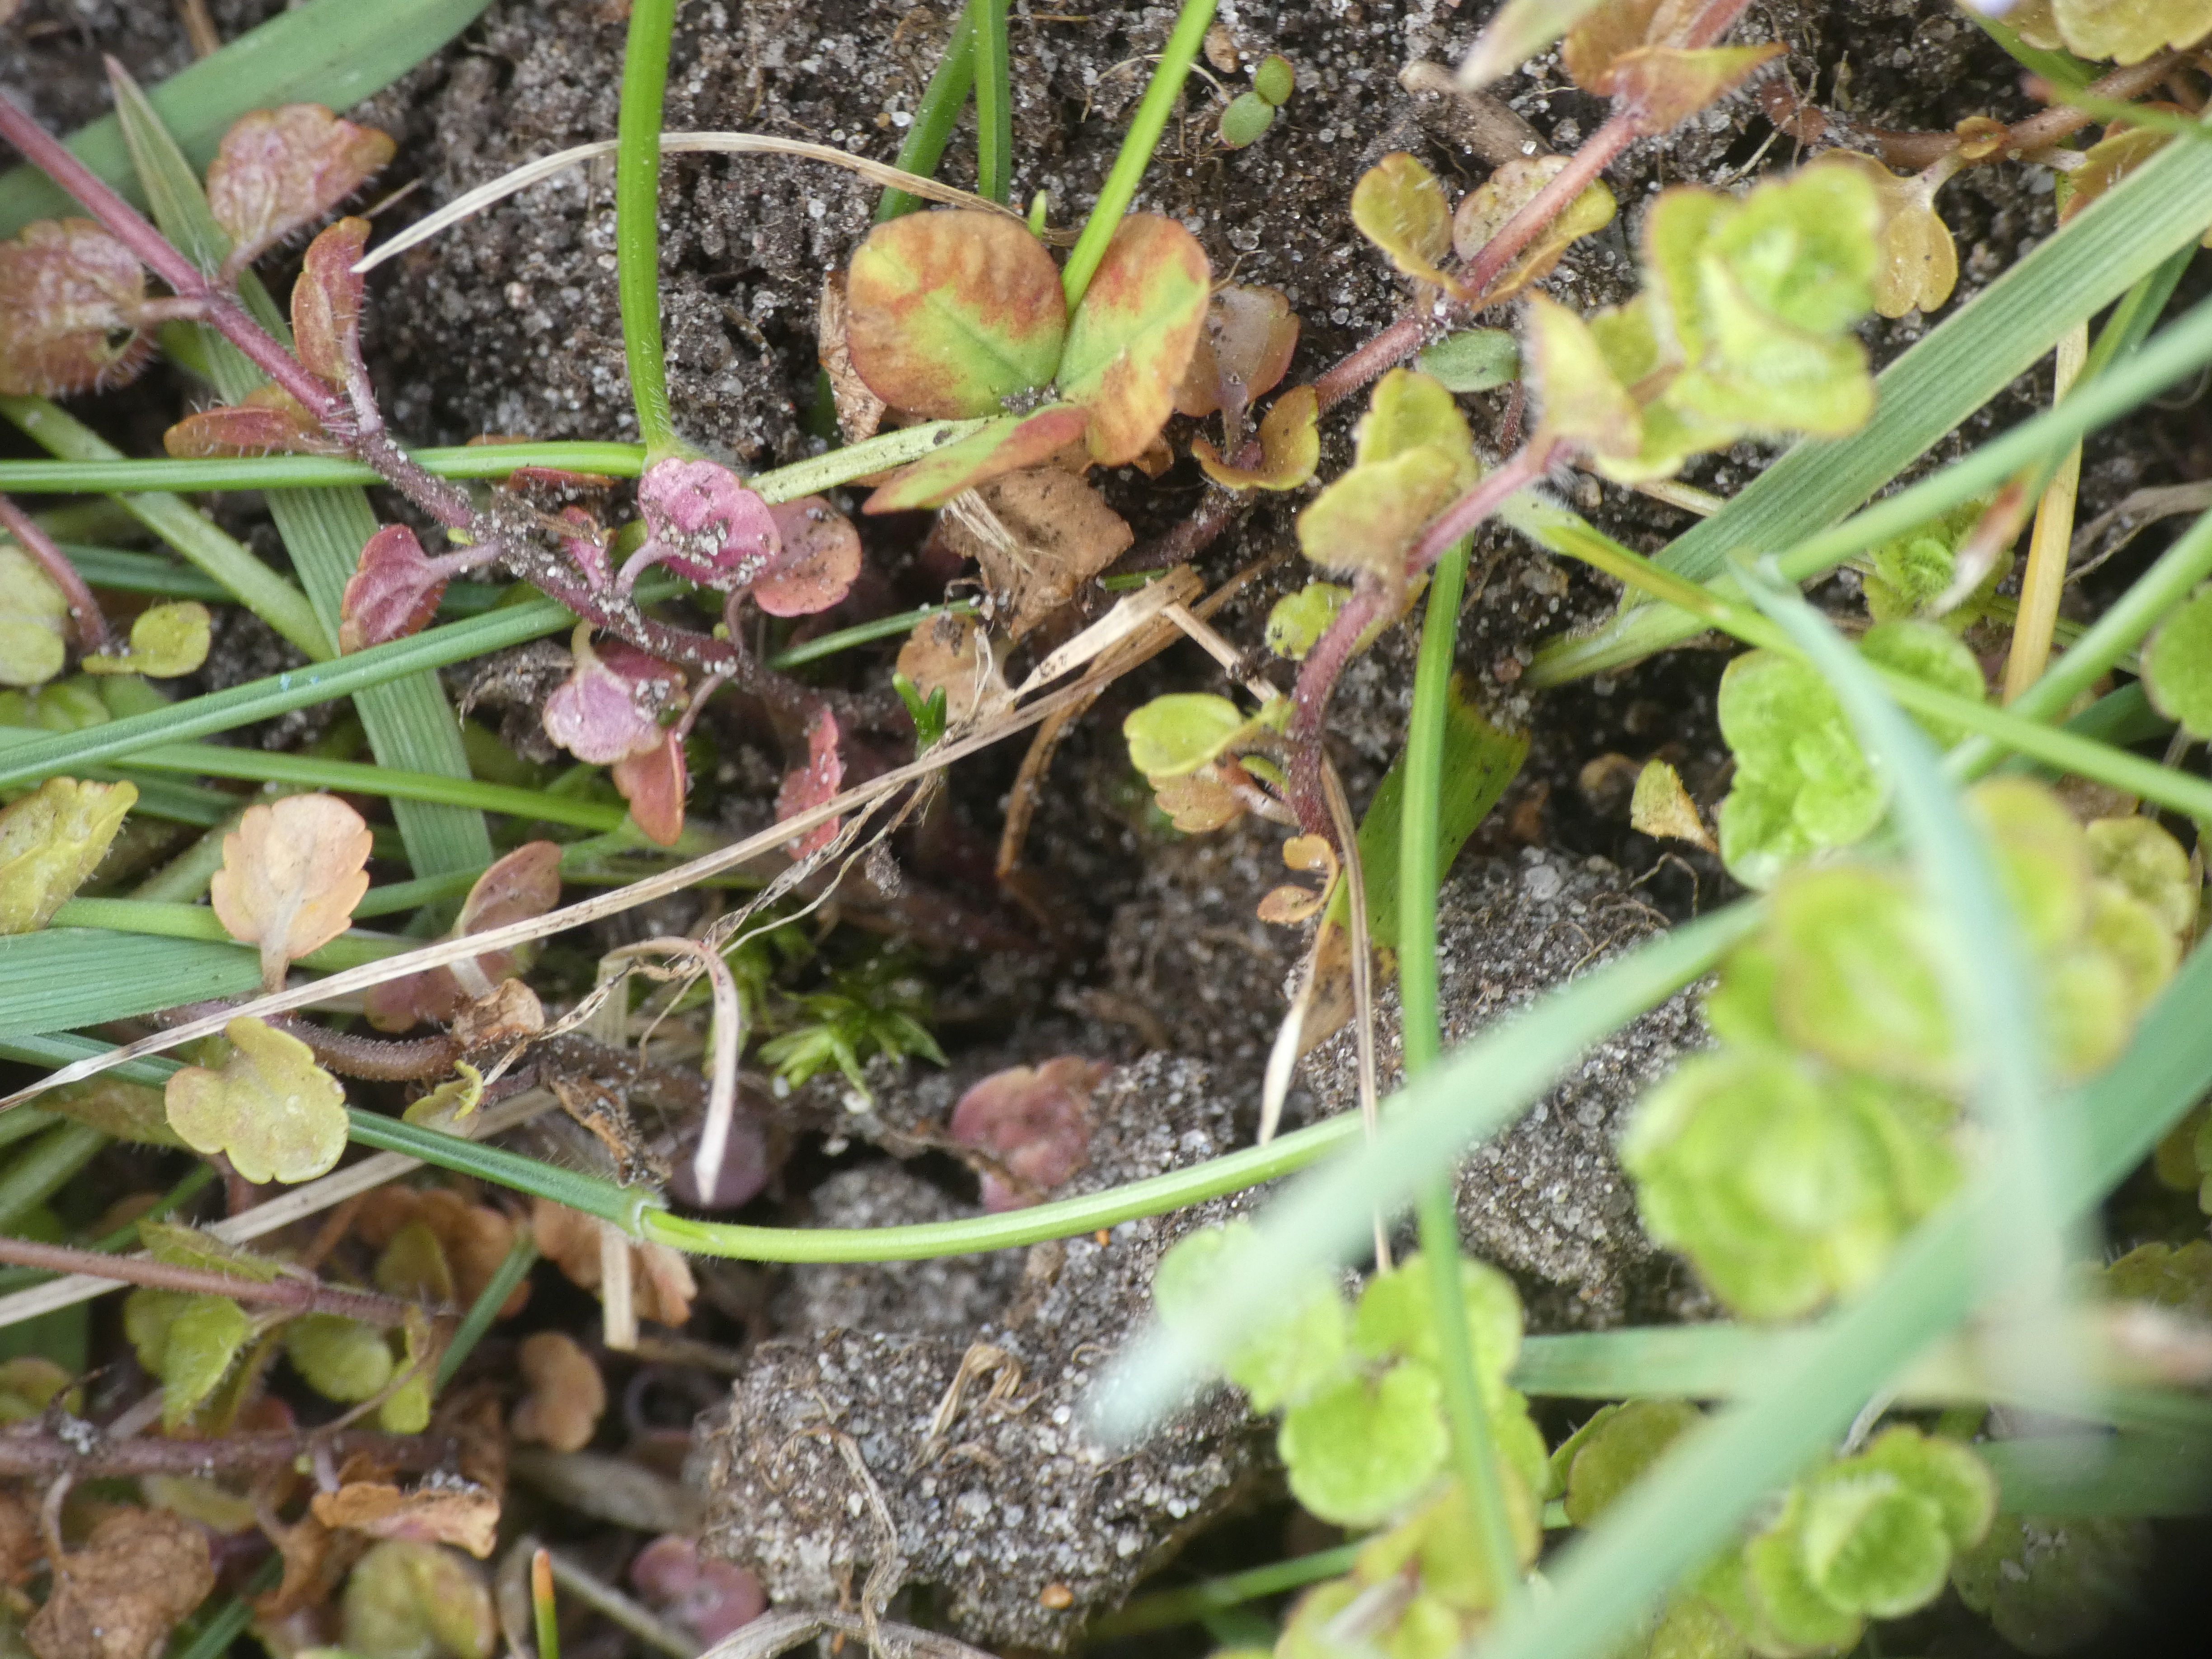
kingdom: Plantae
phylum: Tracheophyta
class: Magnoliopsida
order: Lamiales
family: Plantaginaceae
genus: Veronica
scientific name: Veronica filiformis
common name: Tråd-ærenpris
